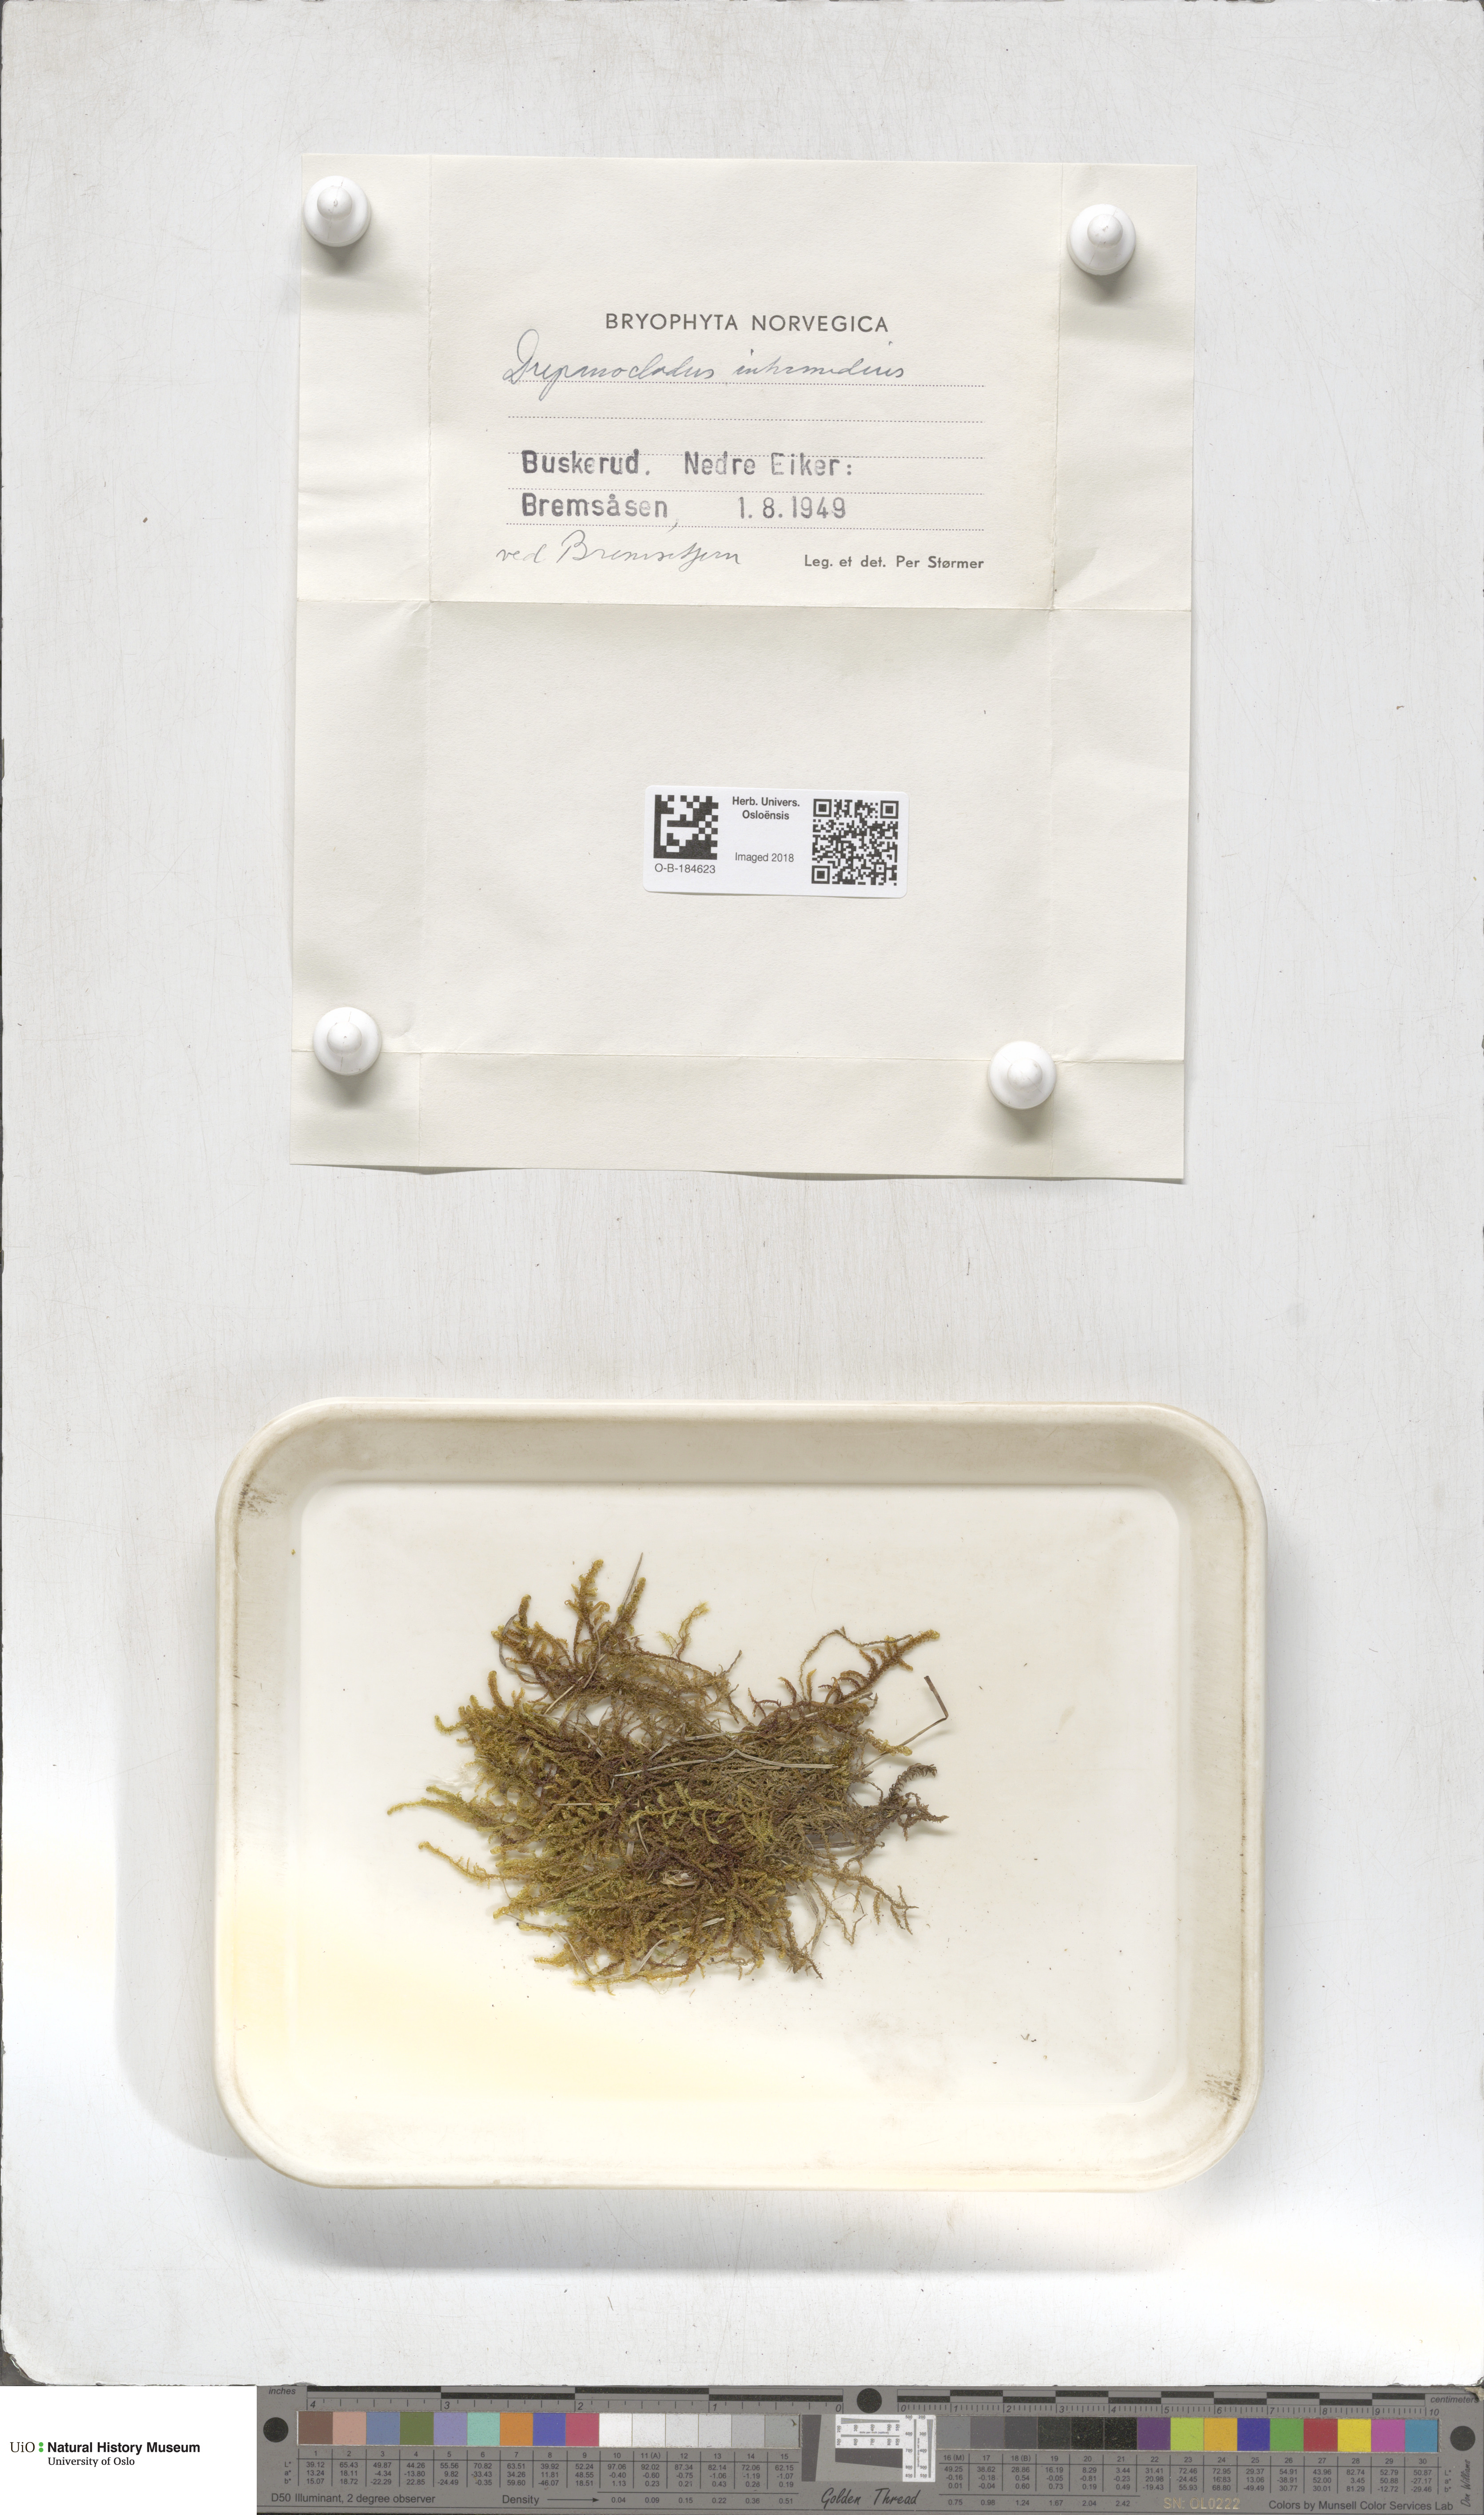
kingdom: Plantae
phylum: Bryophyta
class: Bryopsida
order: Hypnales
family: Scorpidiaceae
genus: Scorpidium
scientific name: Scorpidium cossonii
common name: Cosson's hook moss
